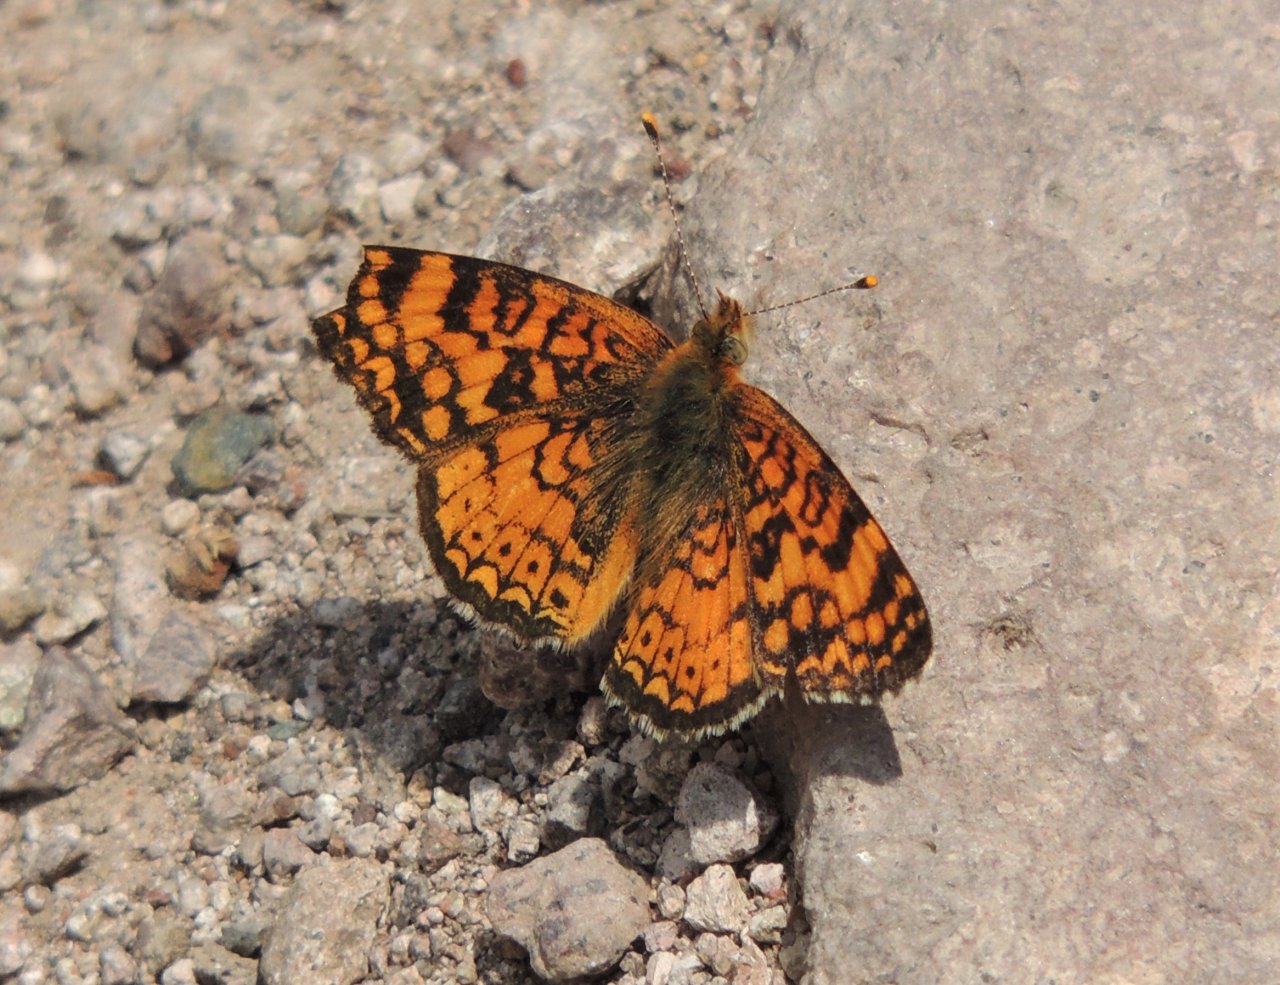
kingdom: Animalia
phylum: Arthropoda
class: Insecta
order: Lepidoptera
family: Nymphalidae
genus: Eresia
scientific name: Eresia aveyrona
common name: Mylitta Crescent
